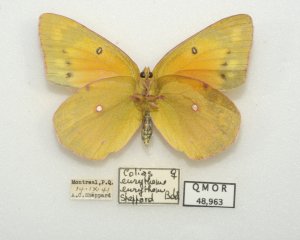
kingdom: Animalia
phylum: Arthropoda
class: Insecta
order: Lepidoptera
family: Pieridae
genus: Colias
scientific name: Colias eurytheme
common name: Orange Sulphur
